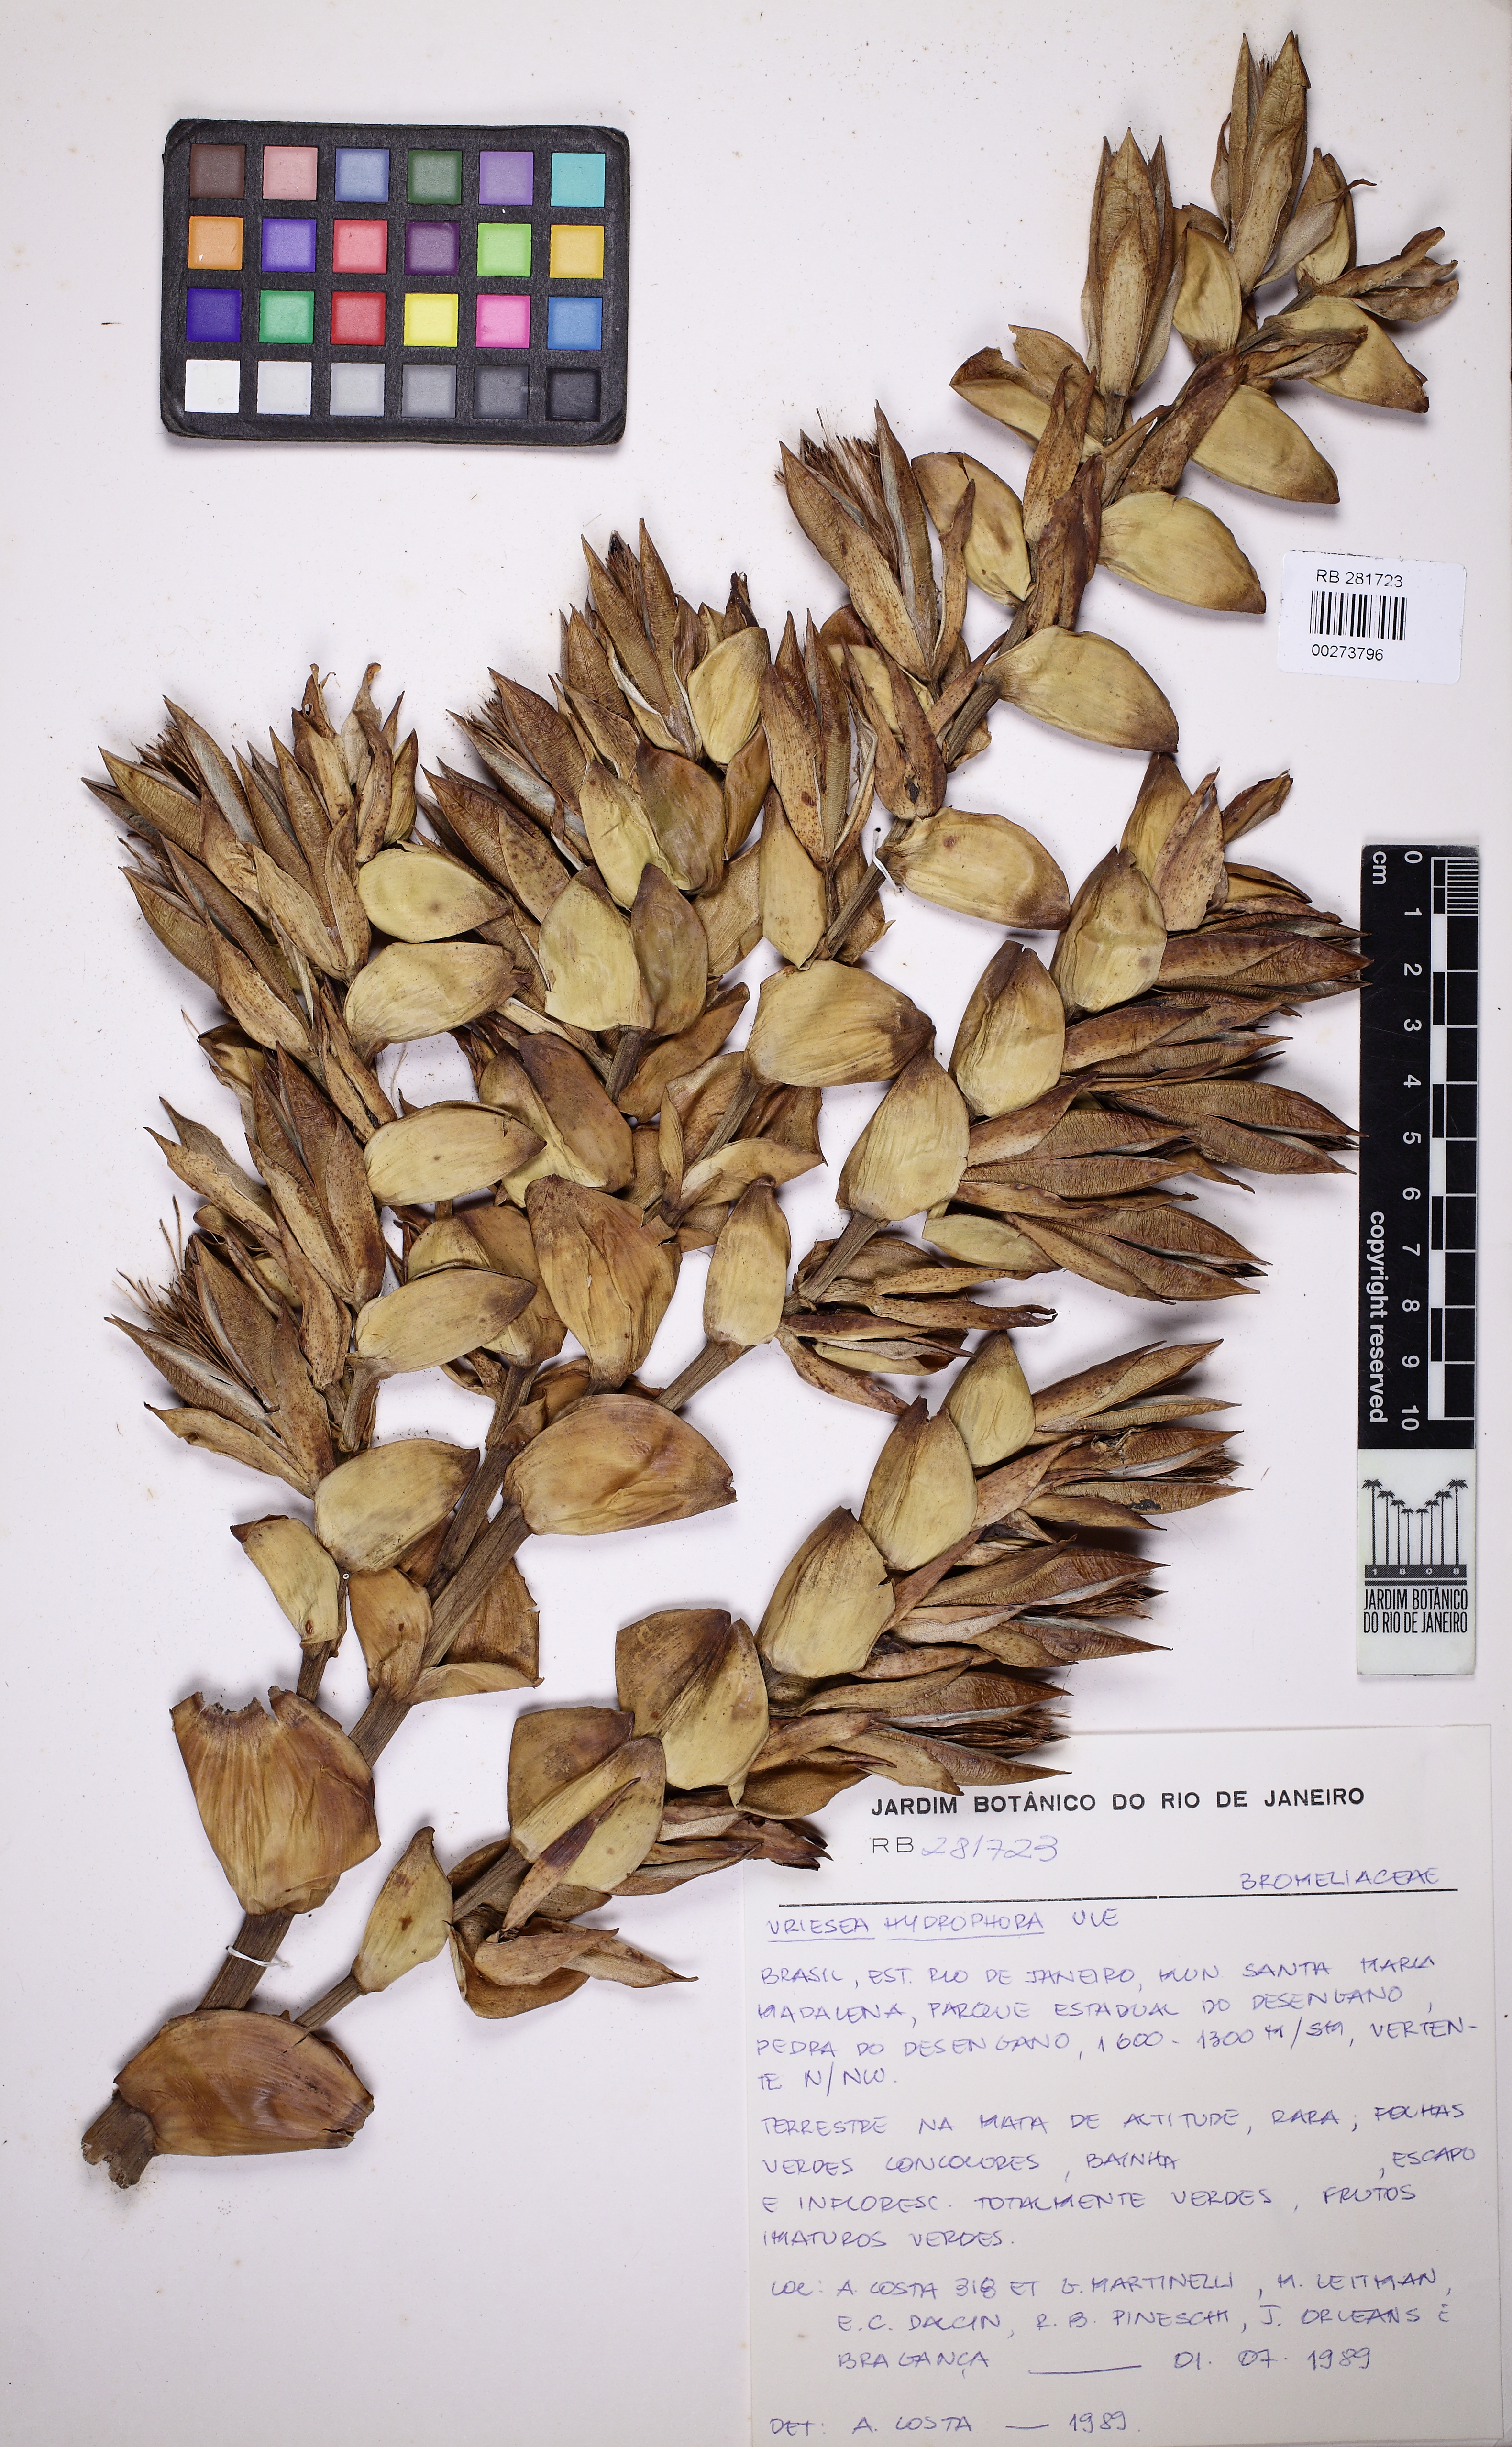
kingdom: Plantae
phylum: Tracheophyta
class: Liliopsida
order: Poales
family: Bromeliaceae
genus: Vriesea
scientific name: Vriesea hydrophora
